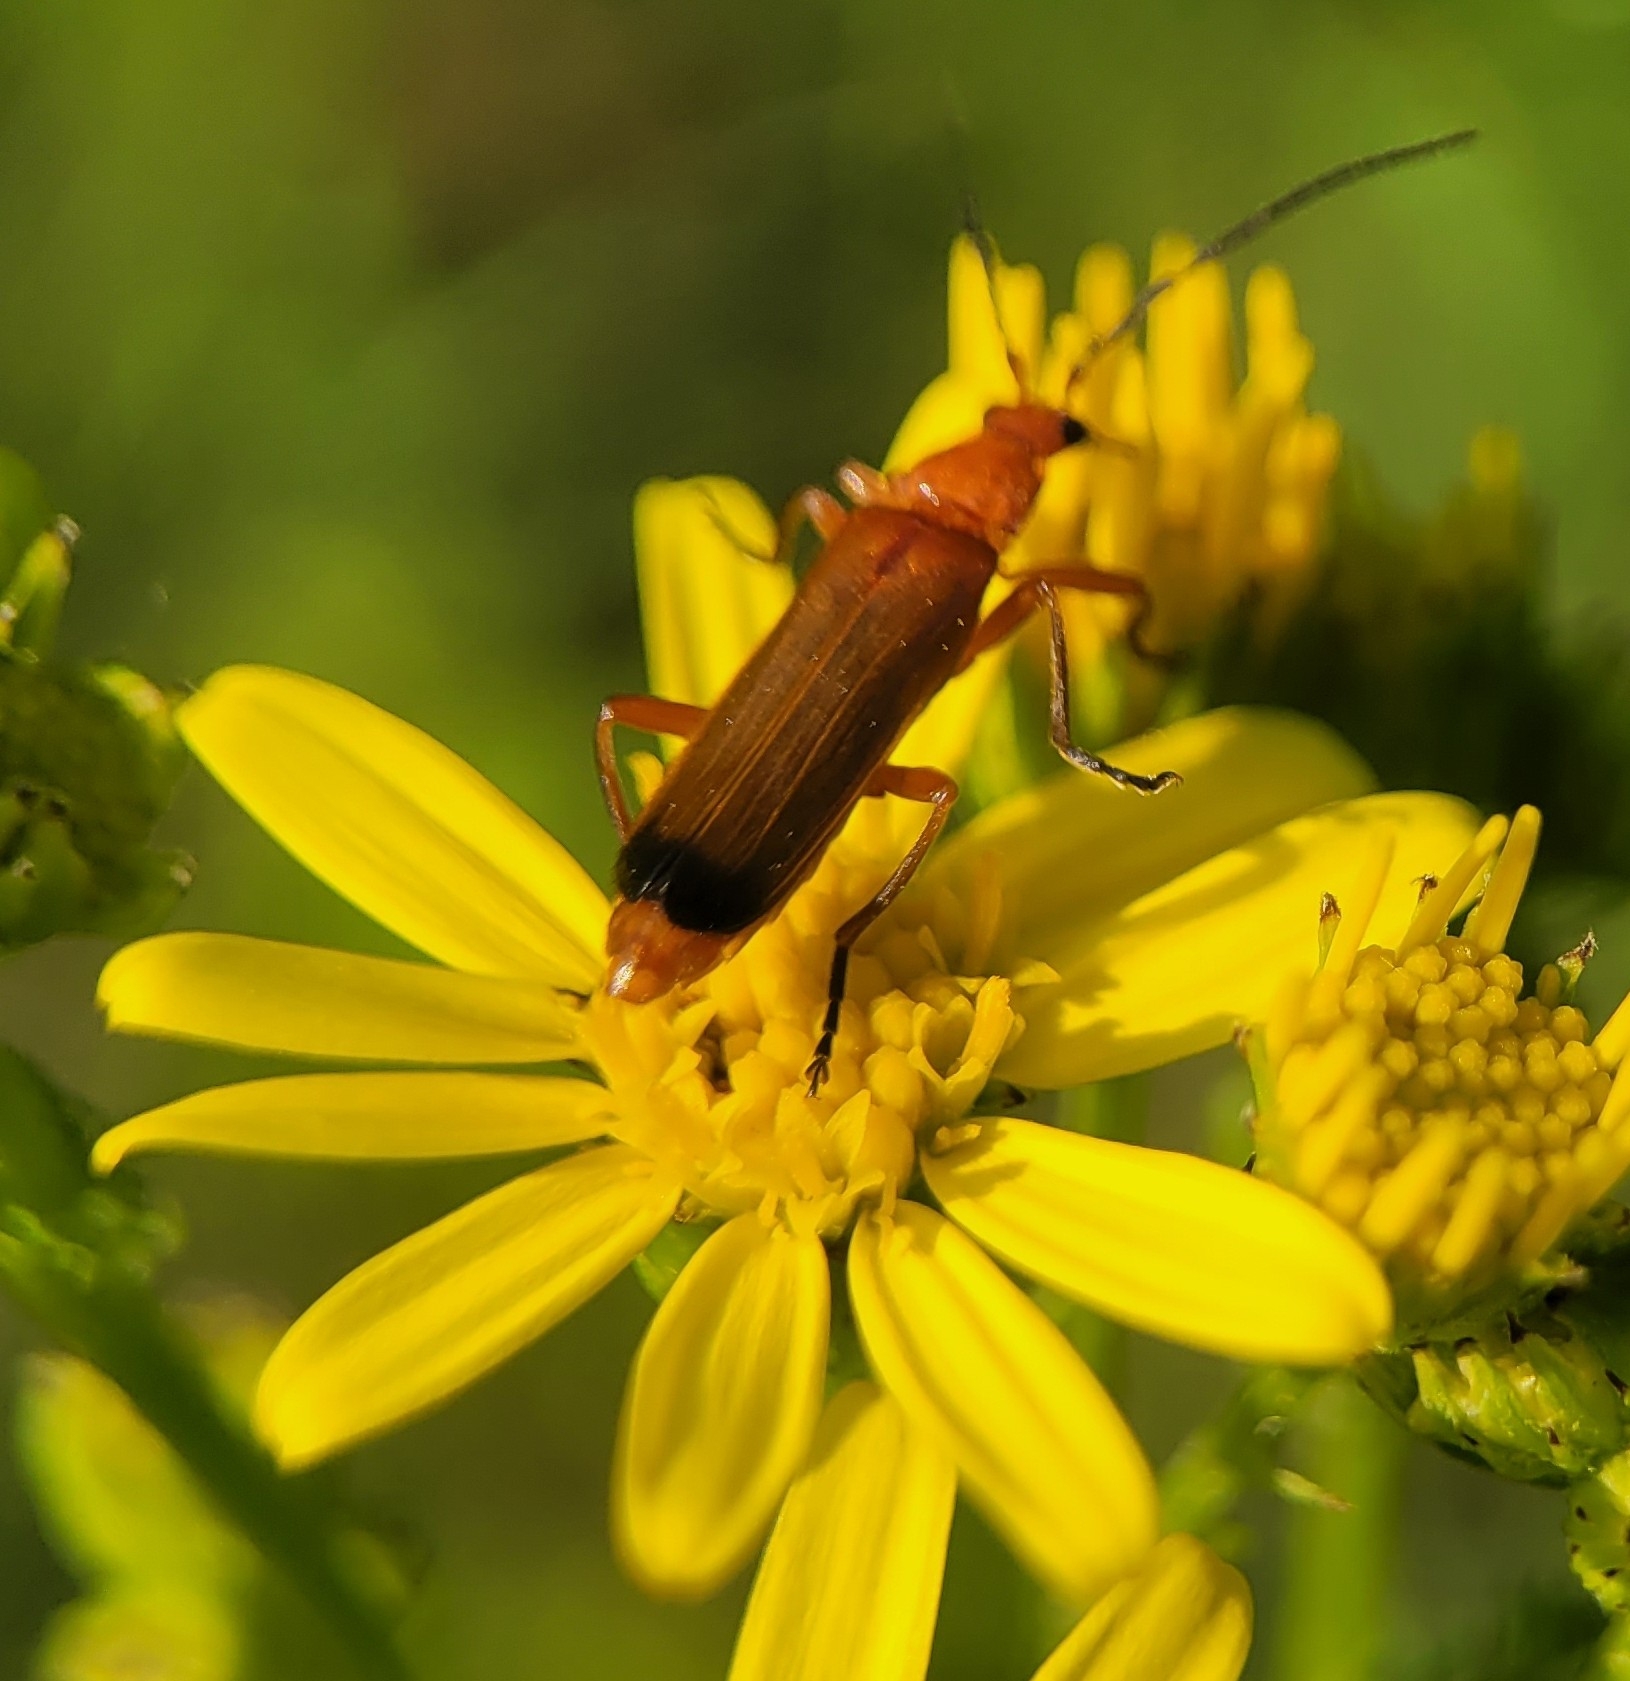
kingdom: Animalia
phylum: Arthropoda
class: Insecta
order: Coleoptera
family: Cantharidae
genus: Rhagonycha
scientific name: Rhagonycha fulva
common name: Præstebille
